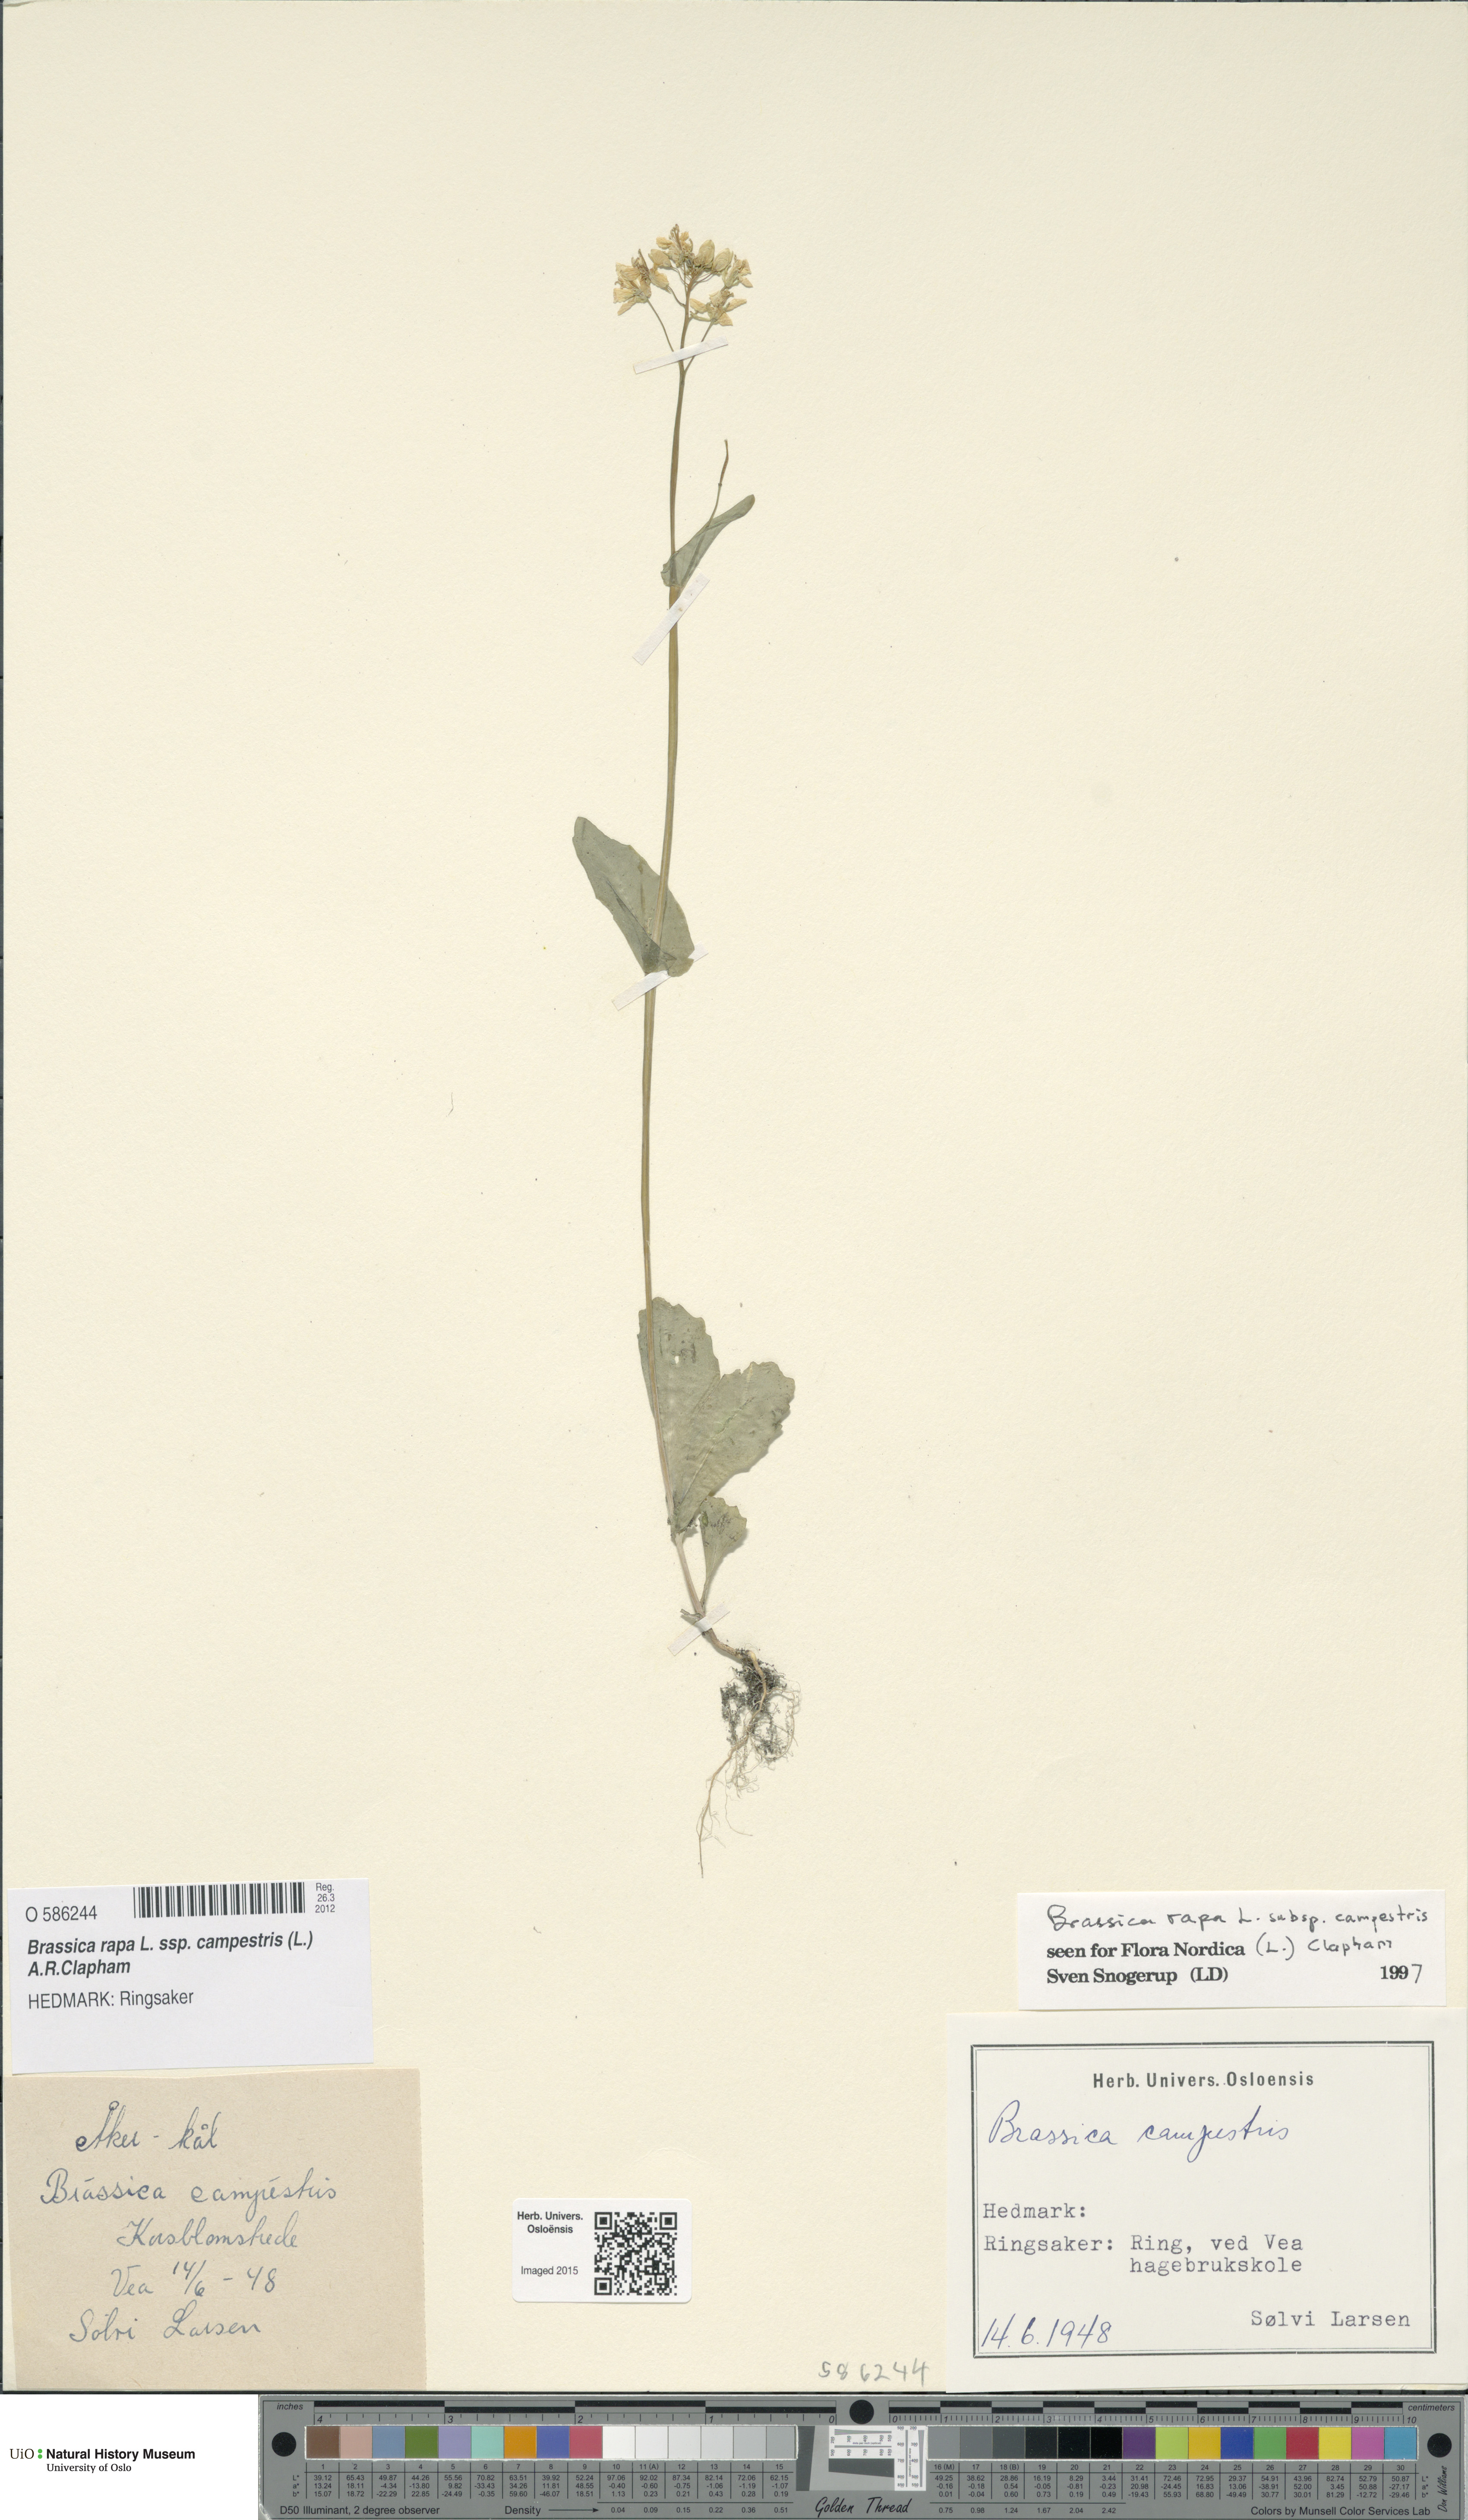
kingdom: Plantae
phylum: Tracheophyta
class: Magnoliopsida
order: Brassicales
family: Brassicaceae
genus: Brassica
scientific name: Brassica rapa
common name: Field mustard
